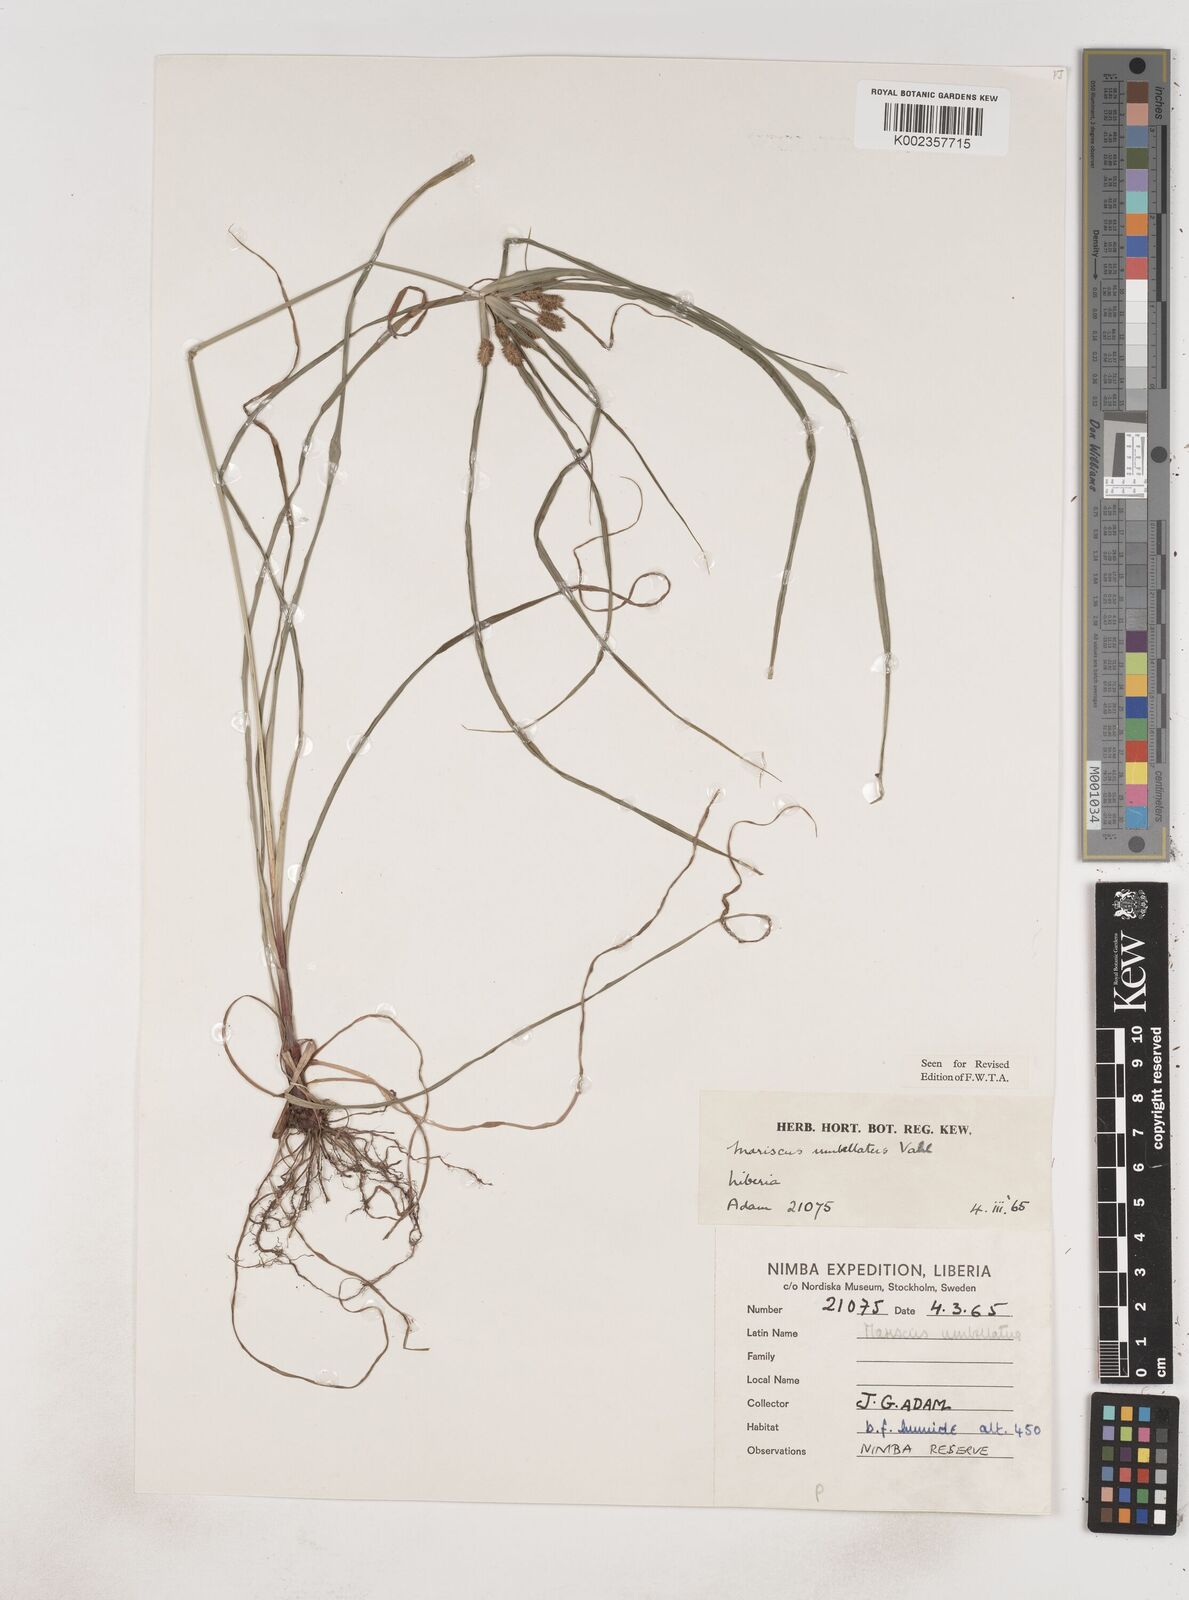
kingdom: Plantae
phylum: Tracheophyta
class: Liliopsida
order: Poales
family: Cyperaceae
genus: Cyperus
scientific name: Cyperus sublimis
